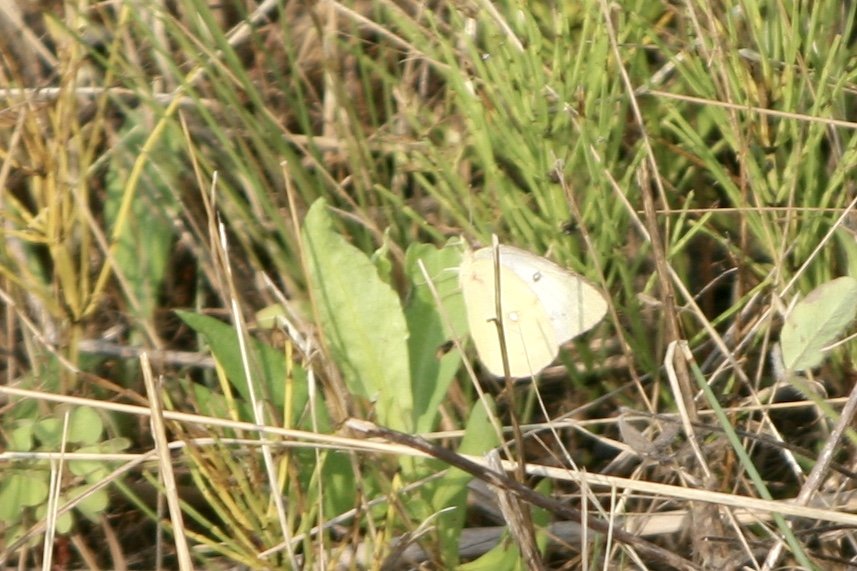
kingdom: Animalia
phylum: Arthropoda
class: Insecta
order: Lepidoptera
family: Pieridae
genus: Colias
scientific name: Colias philodice
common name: Clouded Sulphur
